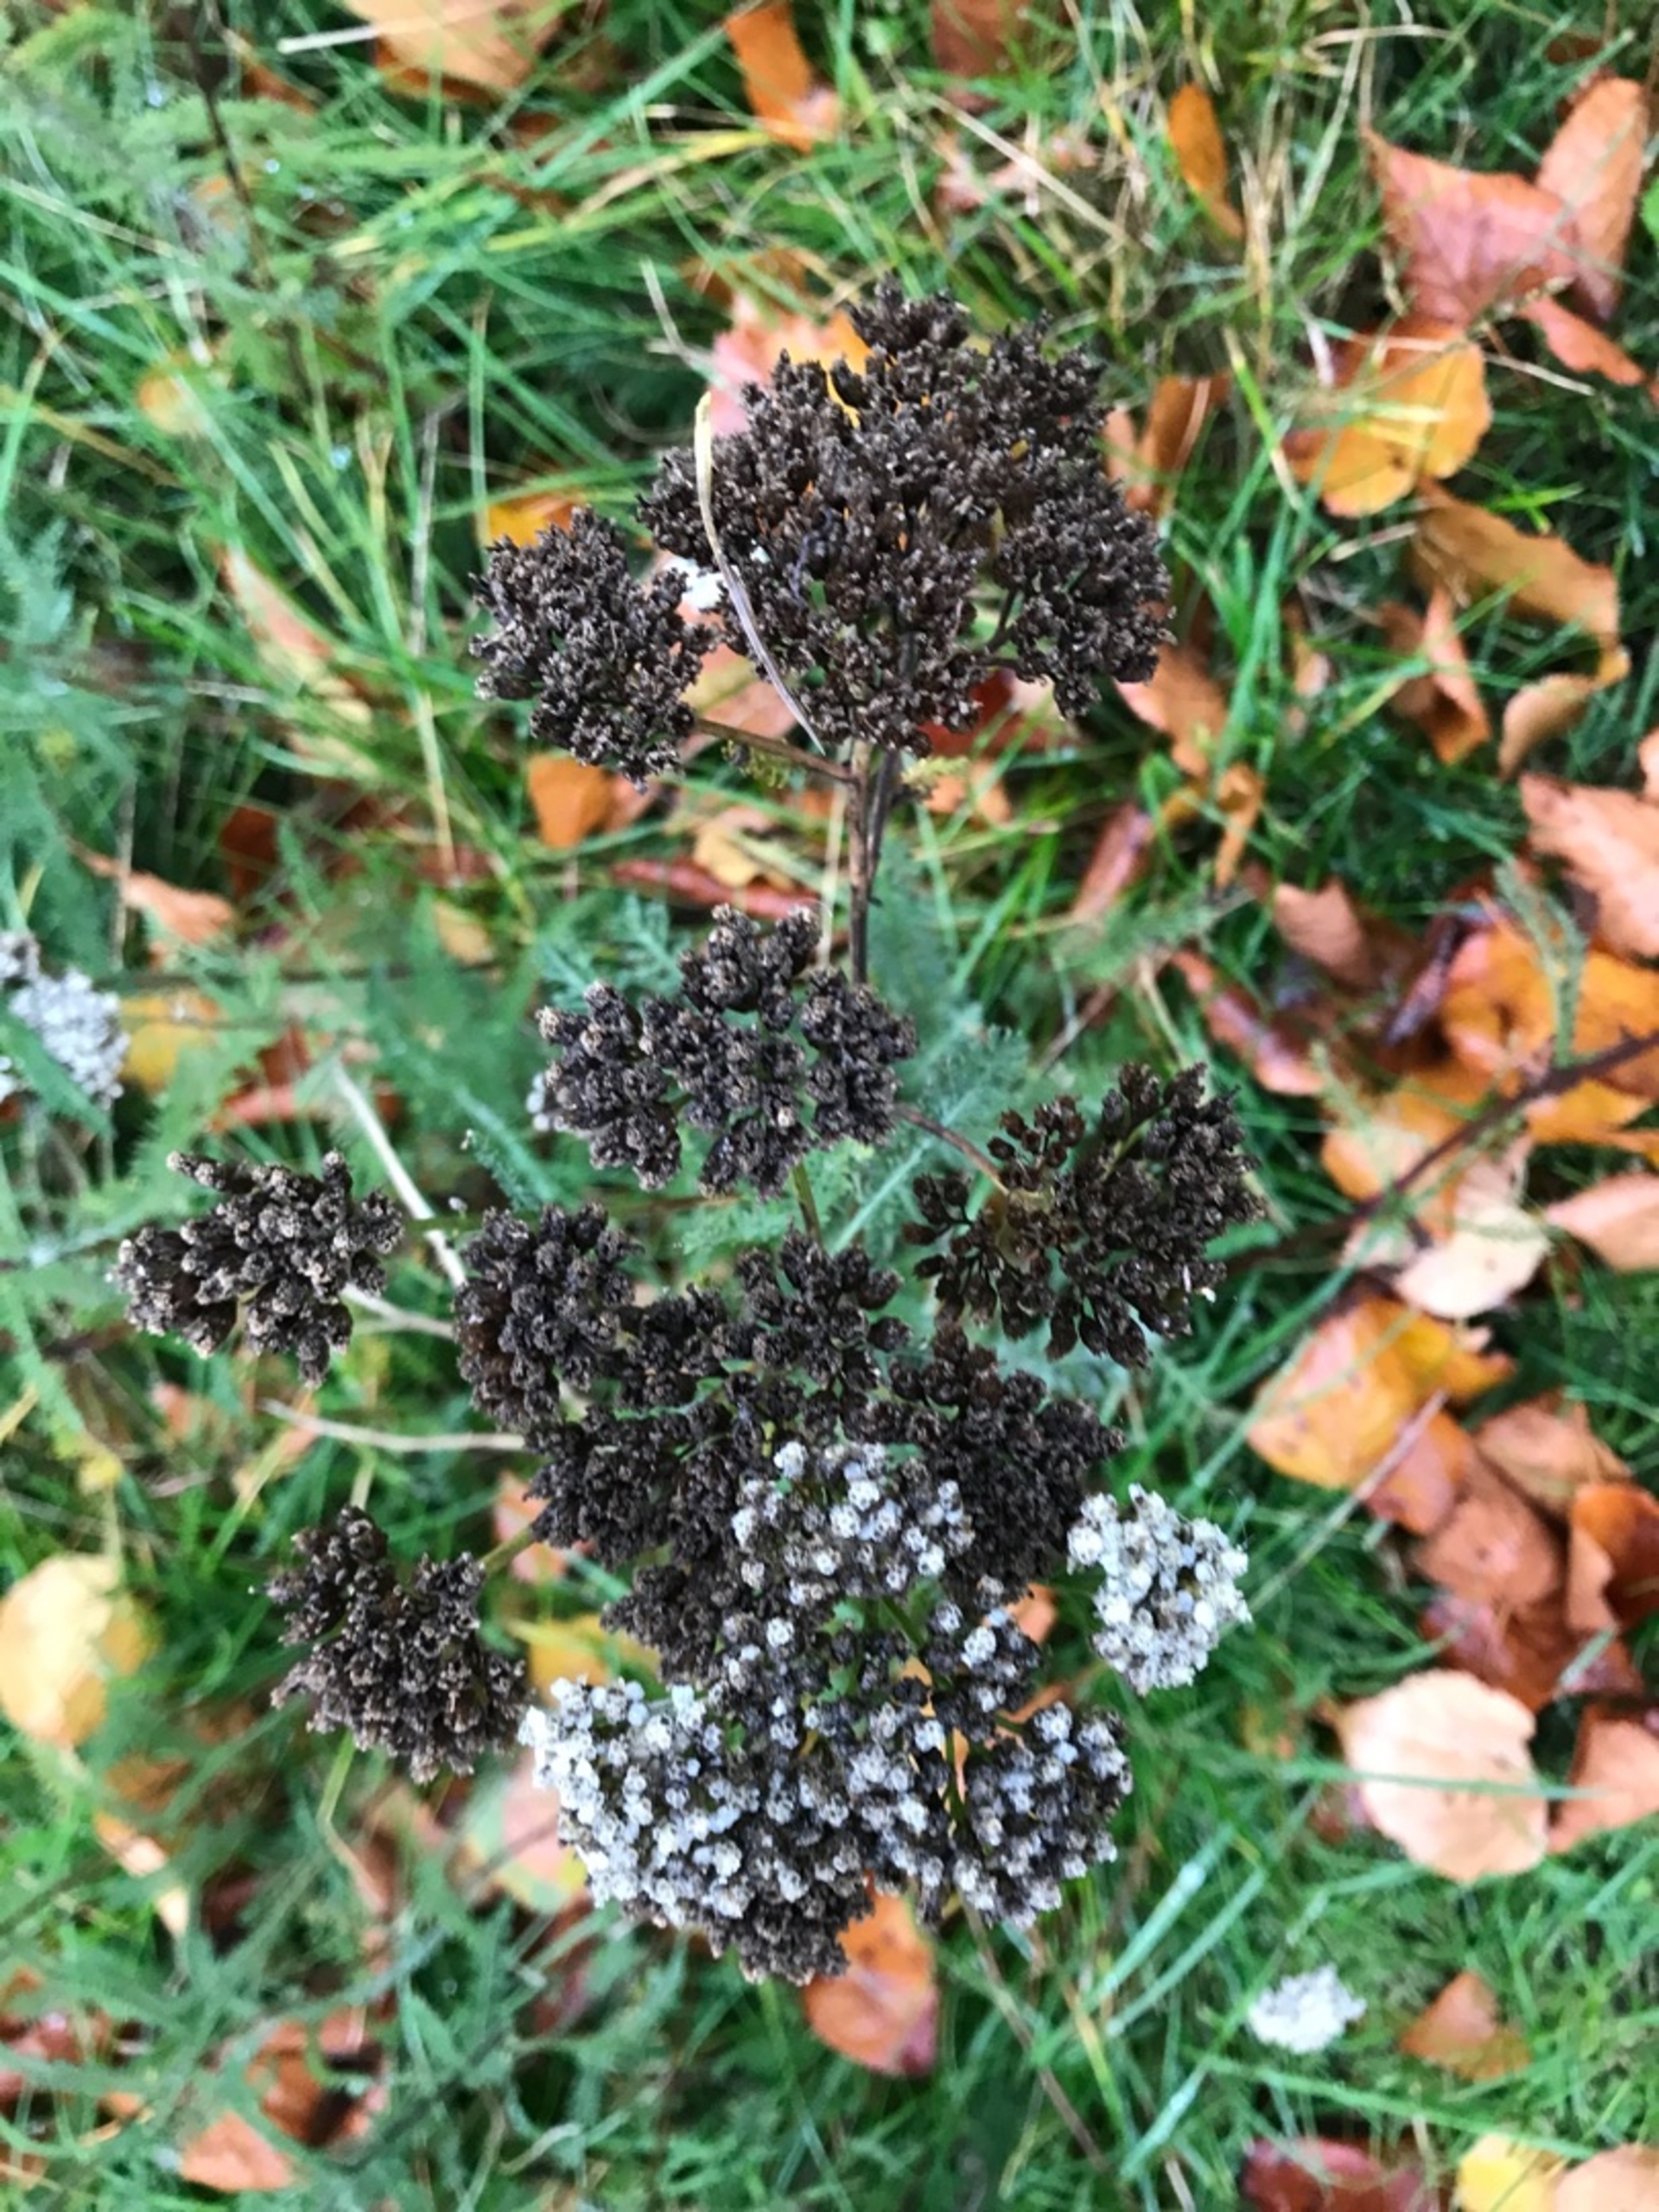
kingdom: Plantae
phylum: Tracheophyta
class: Magnoliopsida
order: Asterales
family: Asteraceae
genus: Achillea
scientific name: Achillea millefolium
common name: Almindelig røllike
